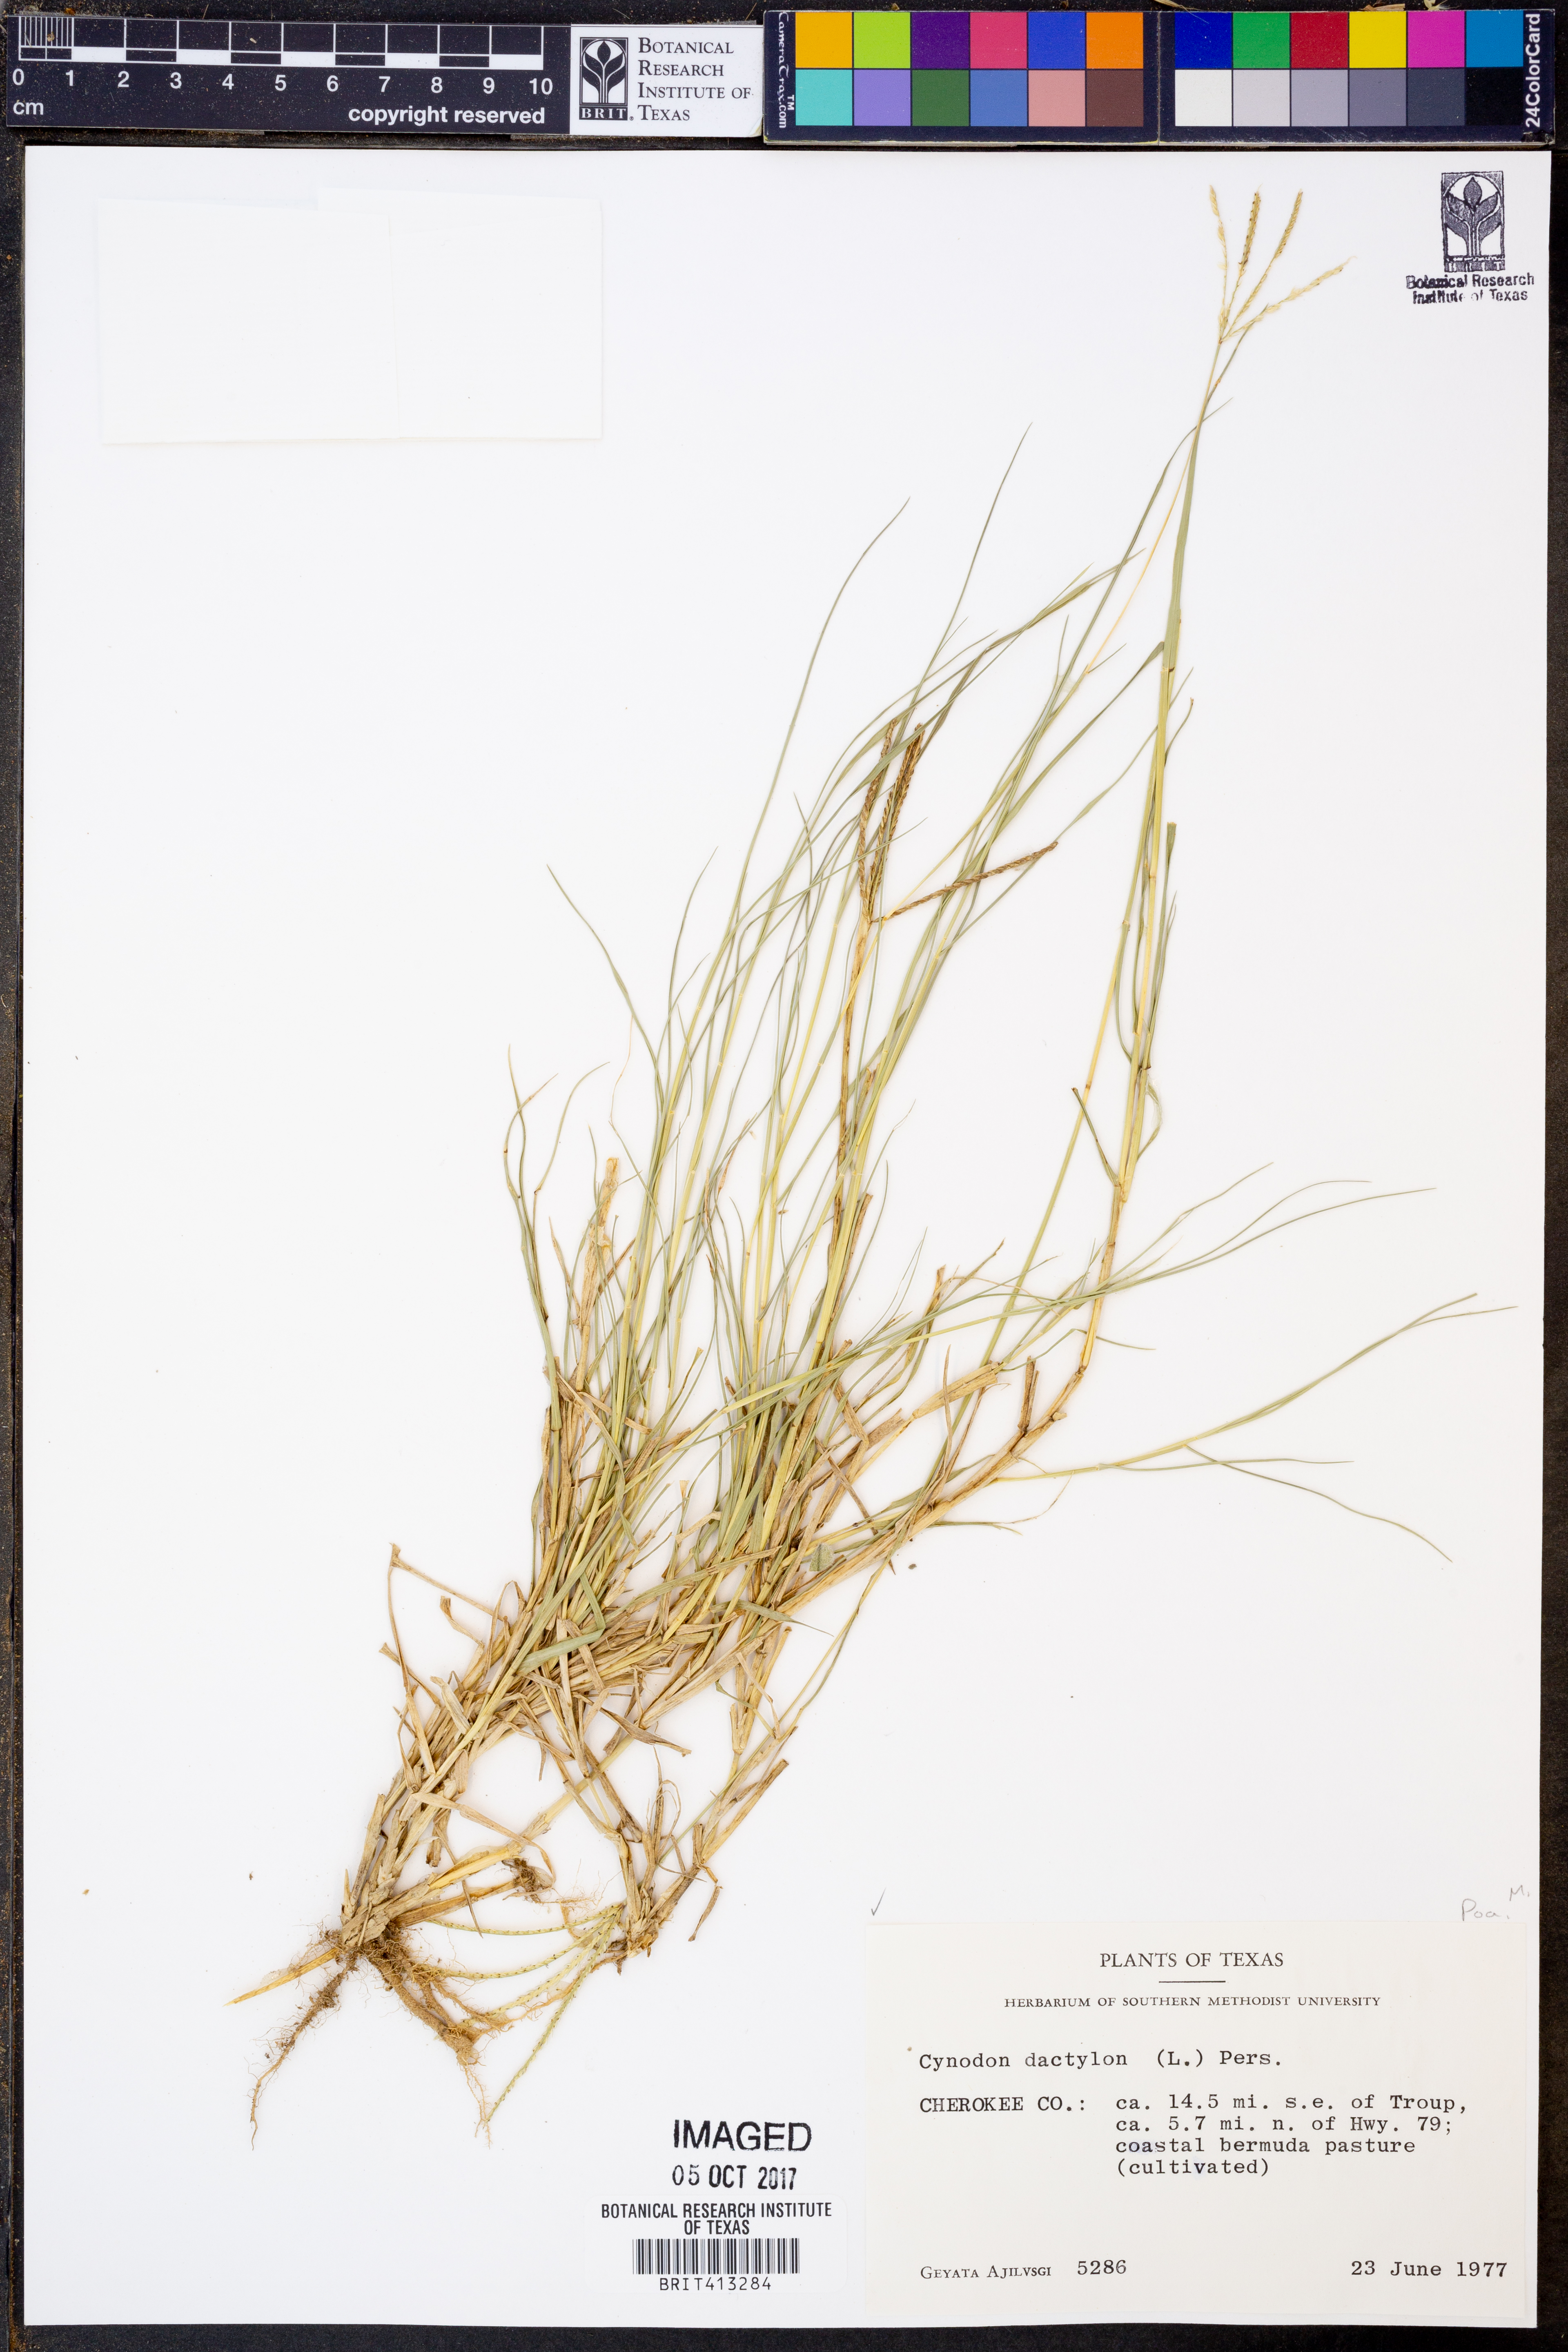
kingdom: Plantae
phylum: Tracheophyta
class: Liliopsida
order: Poales
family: Poaceae
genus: Cynodon
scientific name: Cynodon dactylon
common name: Bermuda grass
